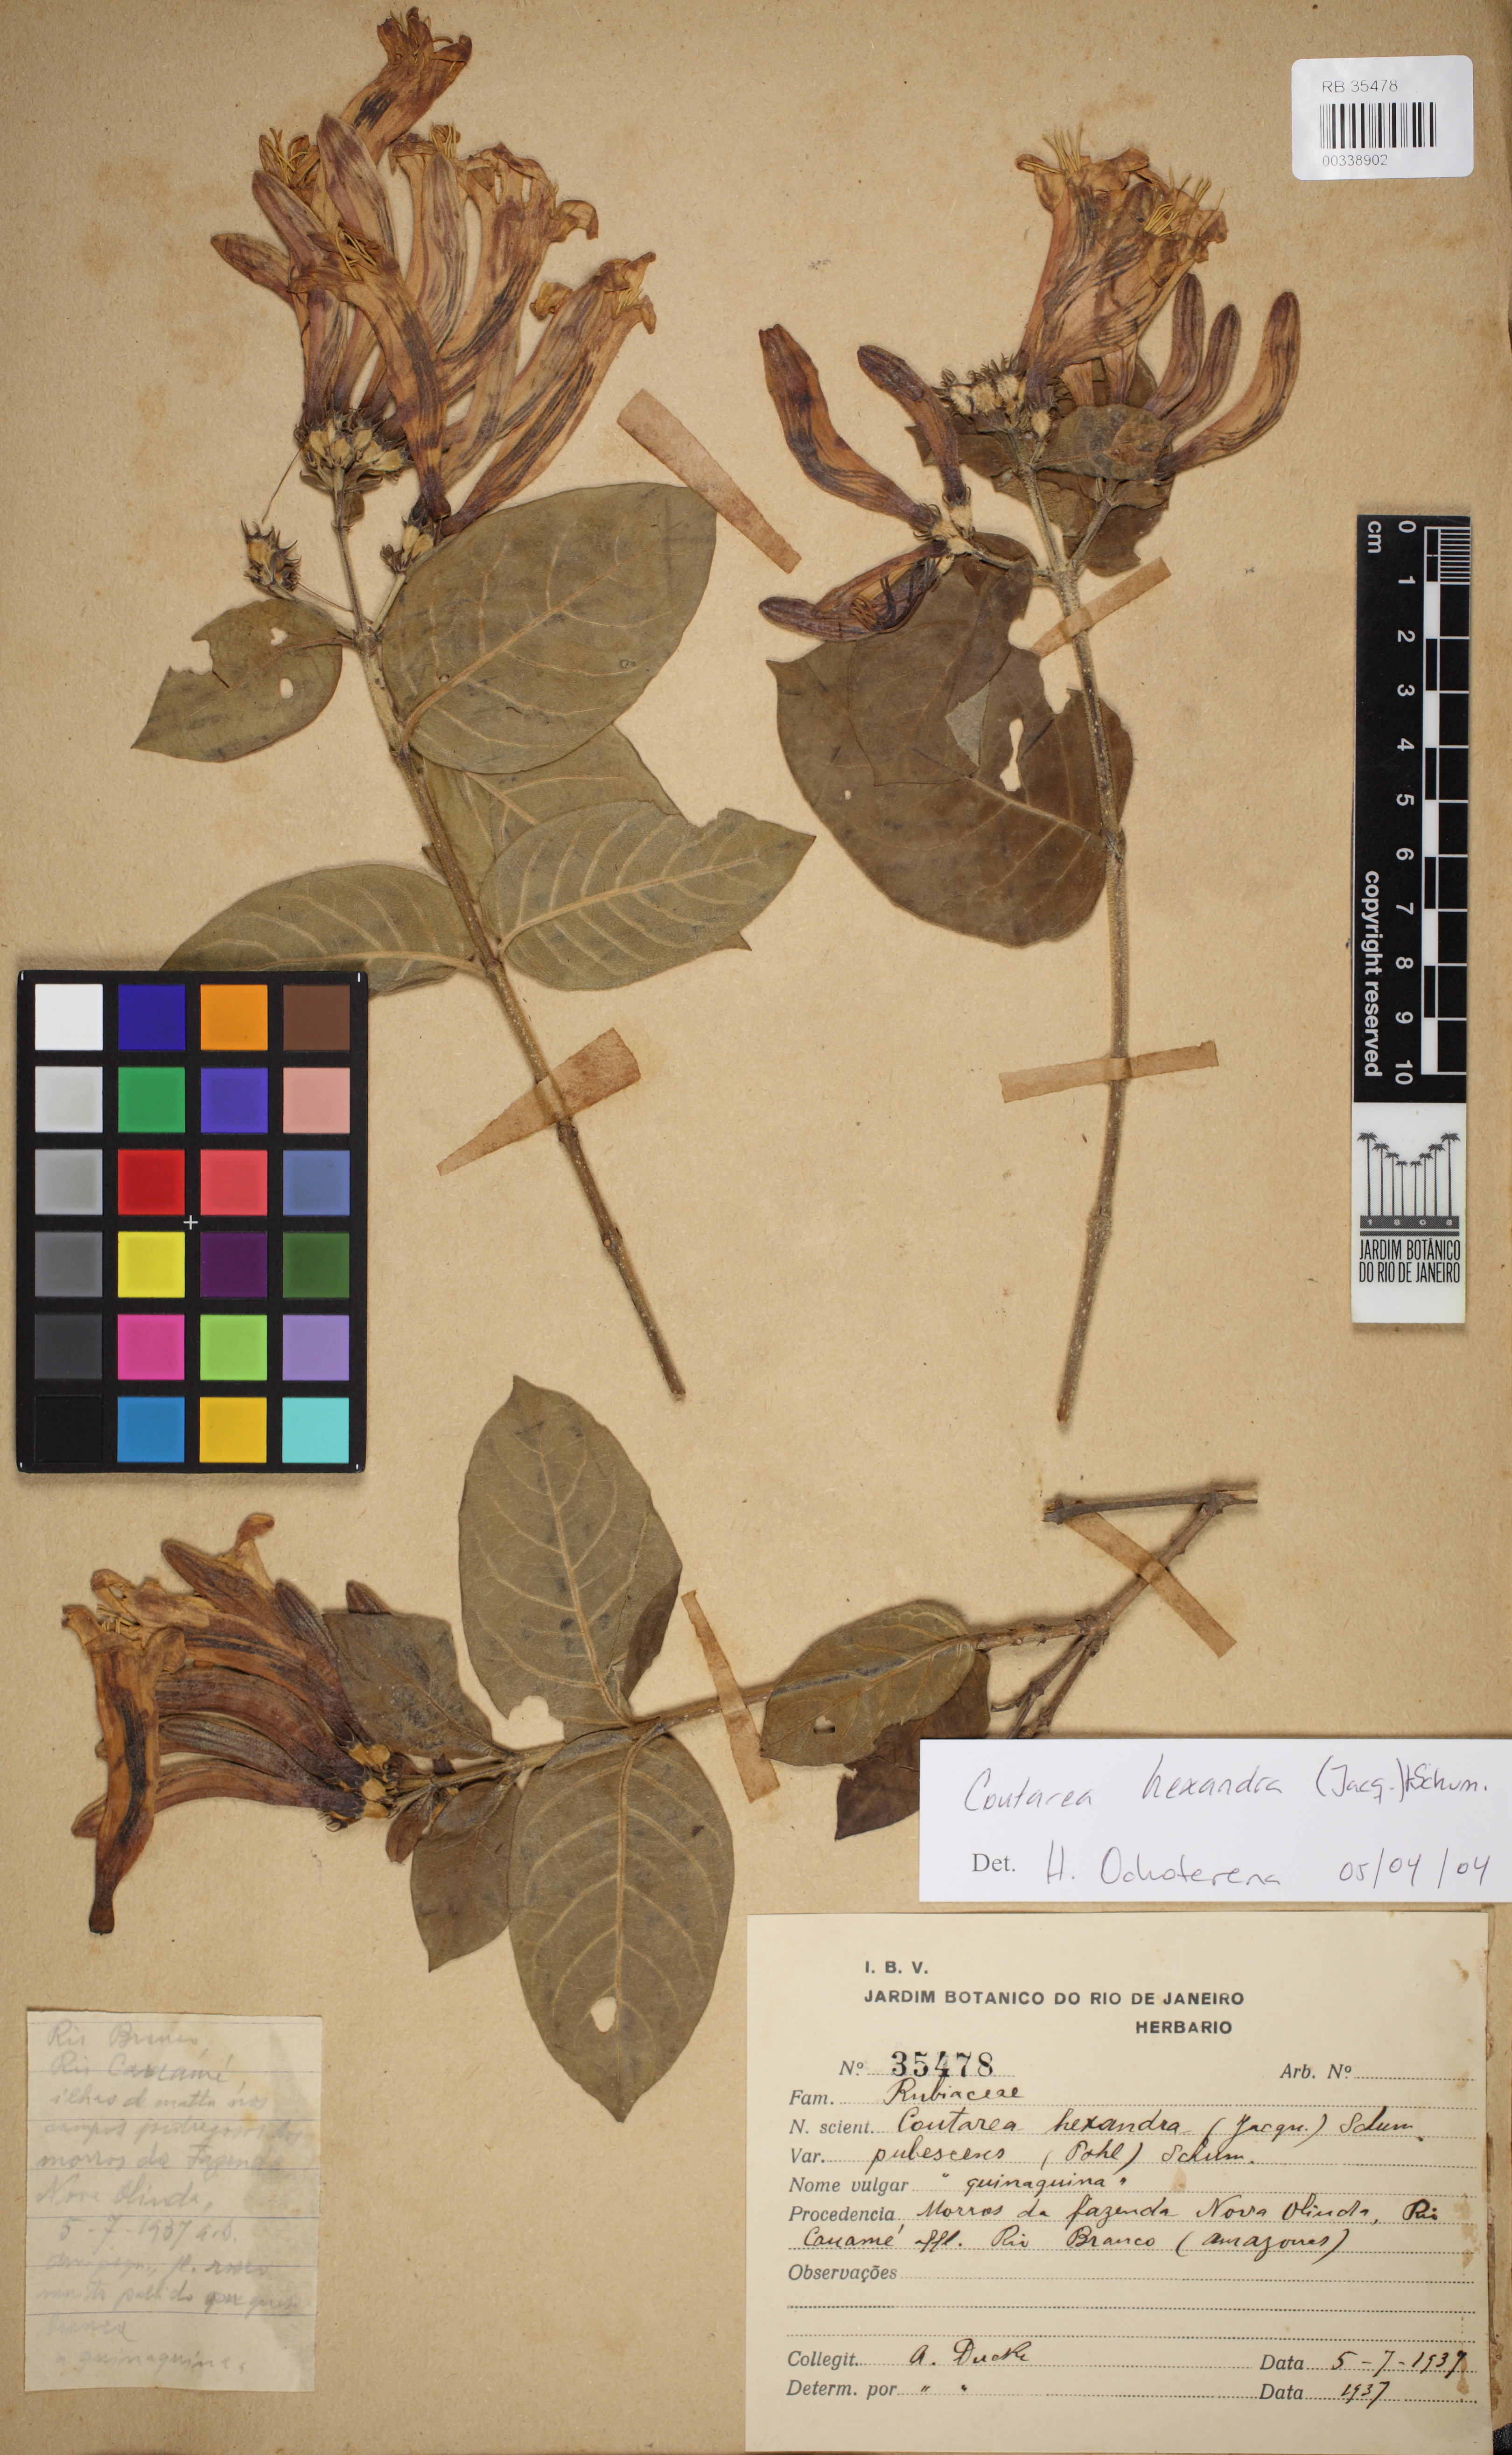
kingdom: Plantae
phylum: Tracheophyta
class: Magnoliopsida
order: Gentianales
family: Rubiaceae
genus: Coutarea
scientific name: Coutarea hexandra
